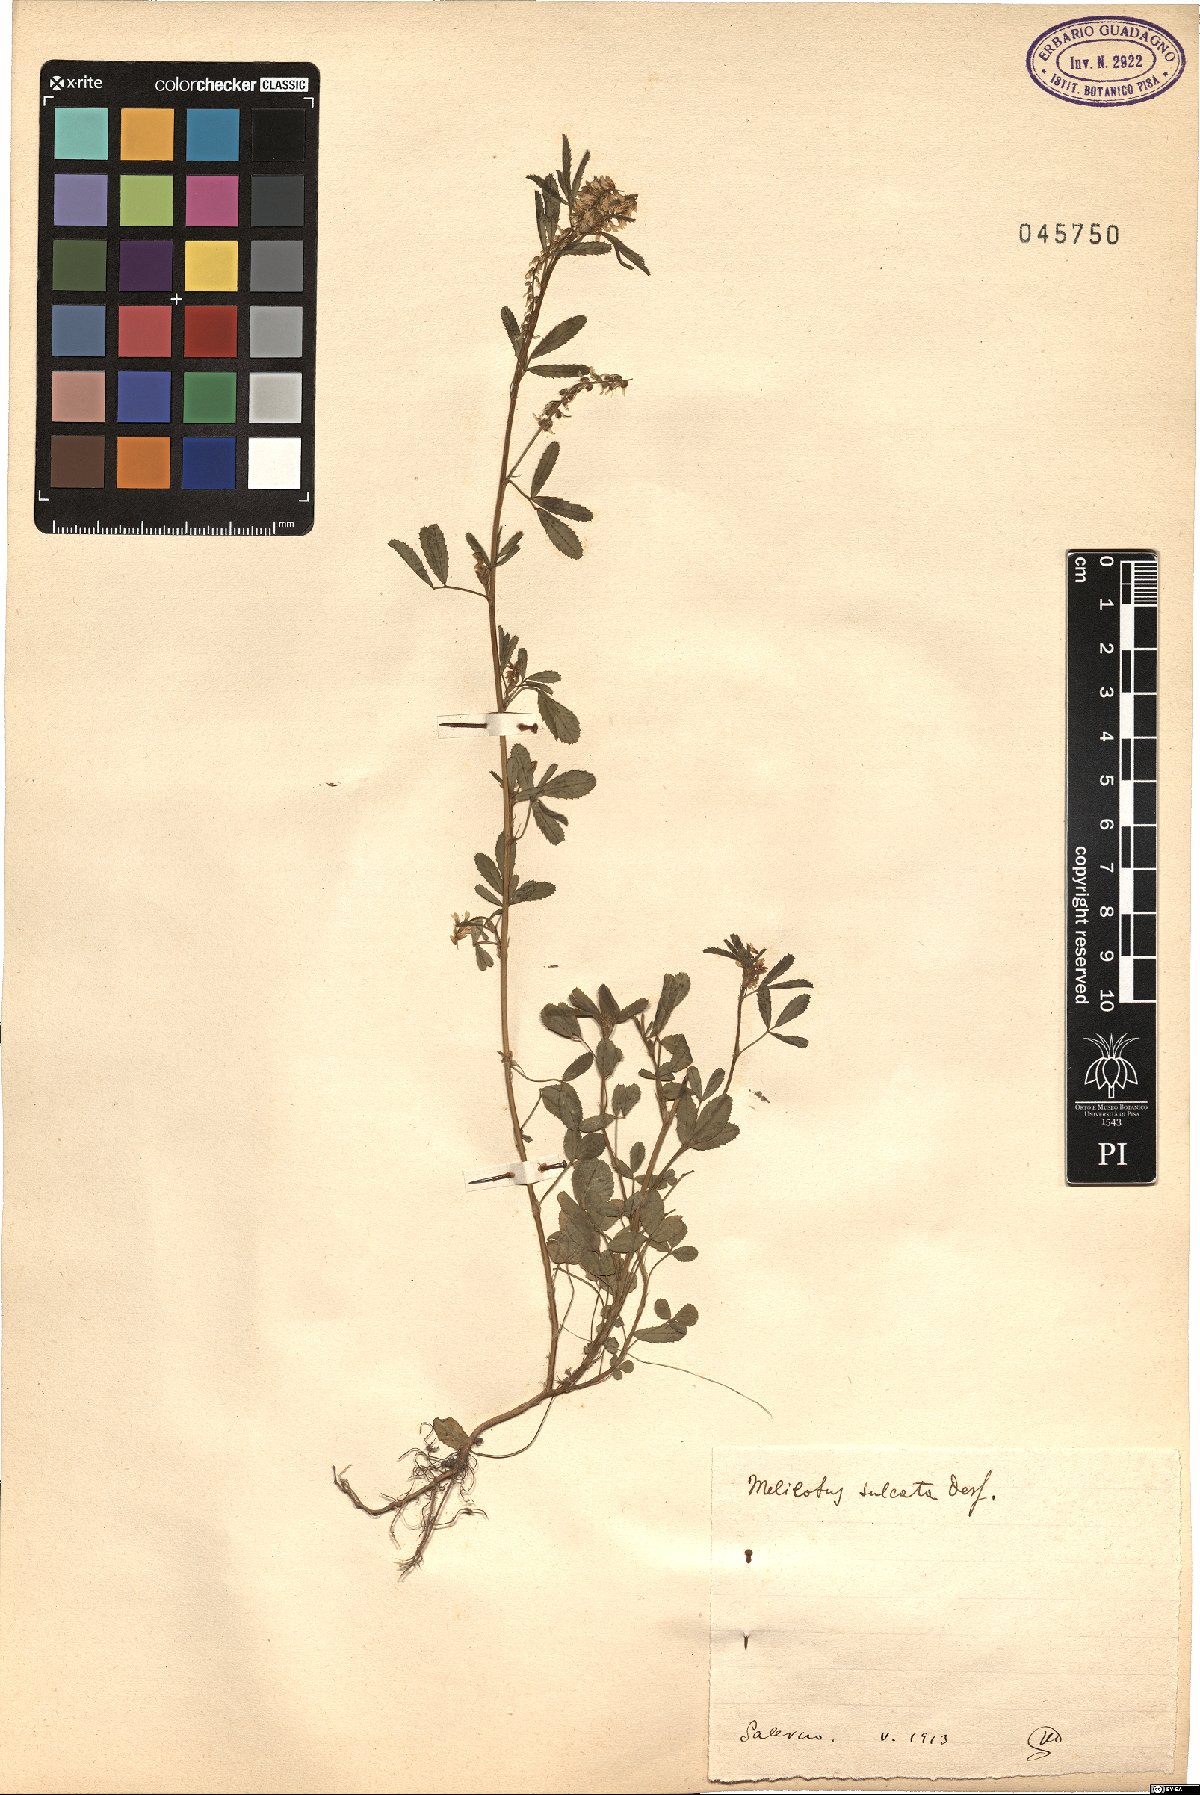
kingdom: Plantae
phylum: Tracheophyta
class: Magnoliopsida
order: Fabales
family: Fabaceae
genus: Melilotus
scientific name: Melilotus sulcatus
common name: Furrowed melilot
